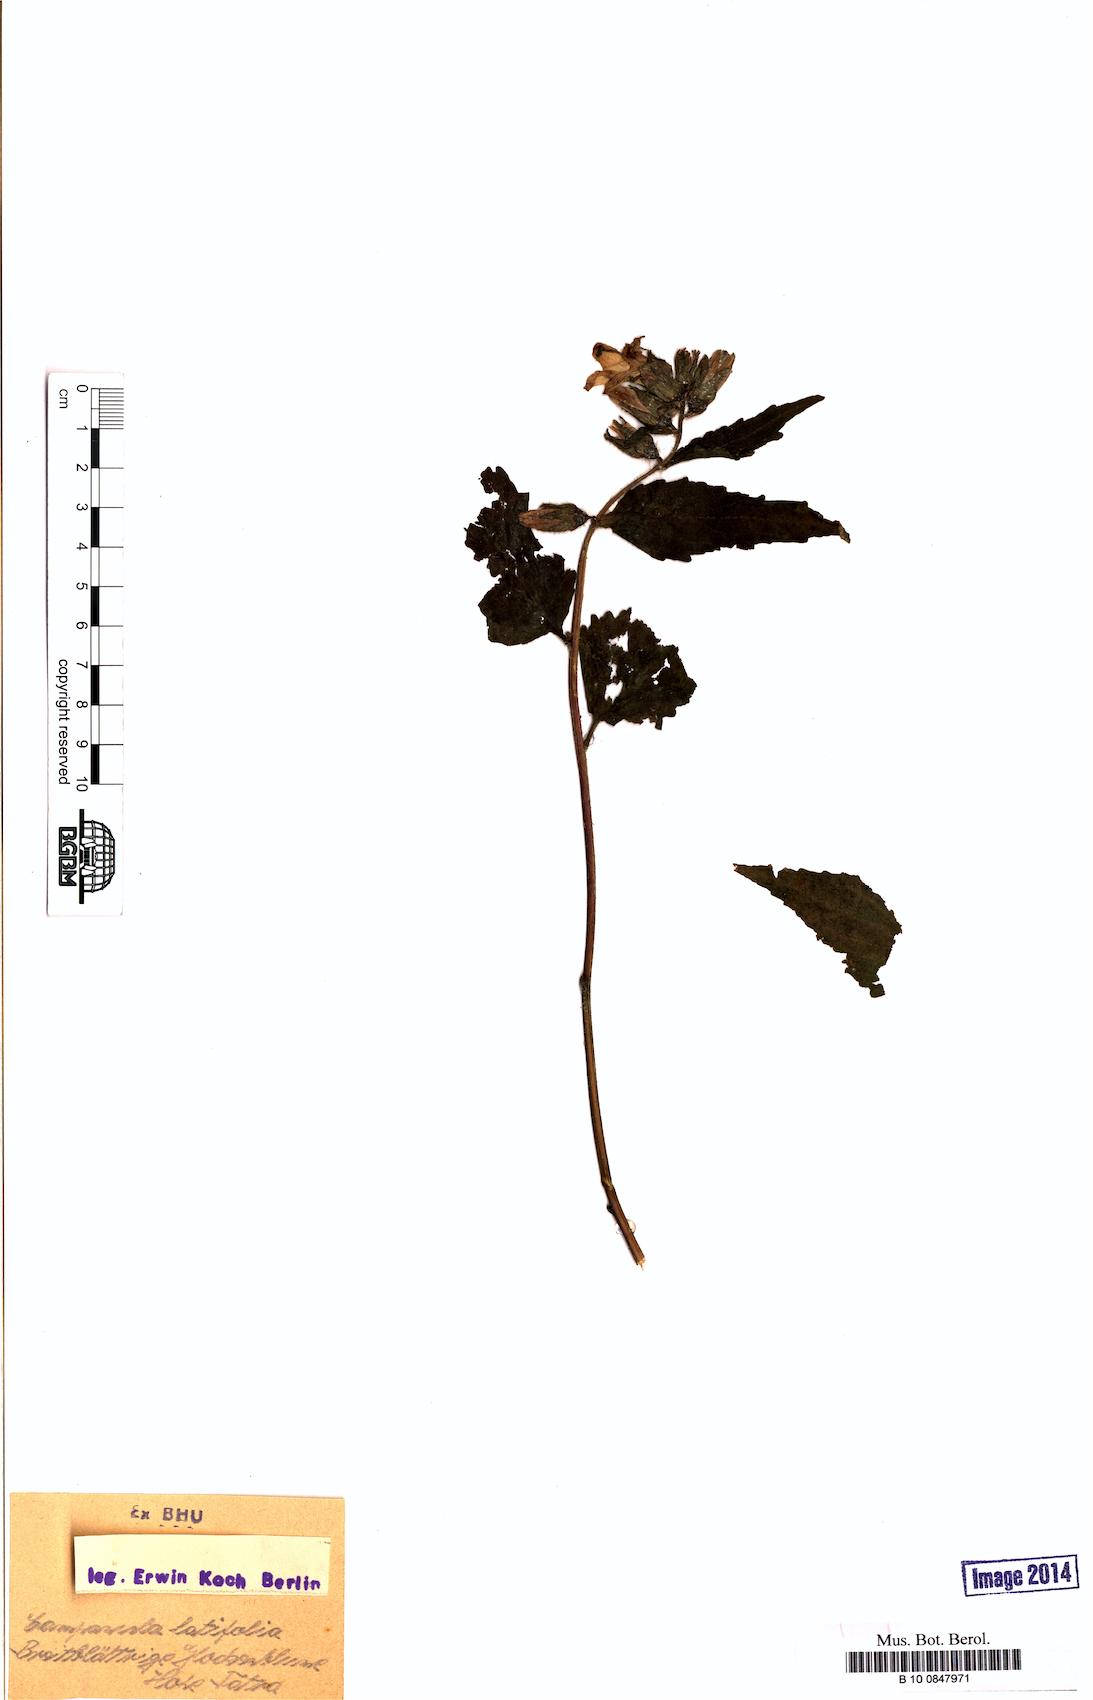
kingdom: Plantae
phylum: Tracheophyta
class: Magnoliopsida
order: Asterales
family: Campanulaceae
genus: Campanula
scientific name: Campanula latifolia
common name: Giant bellflower
